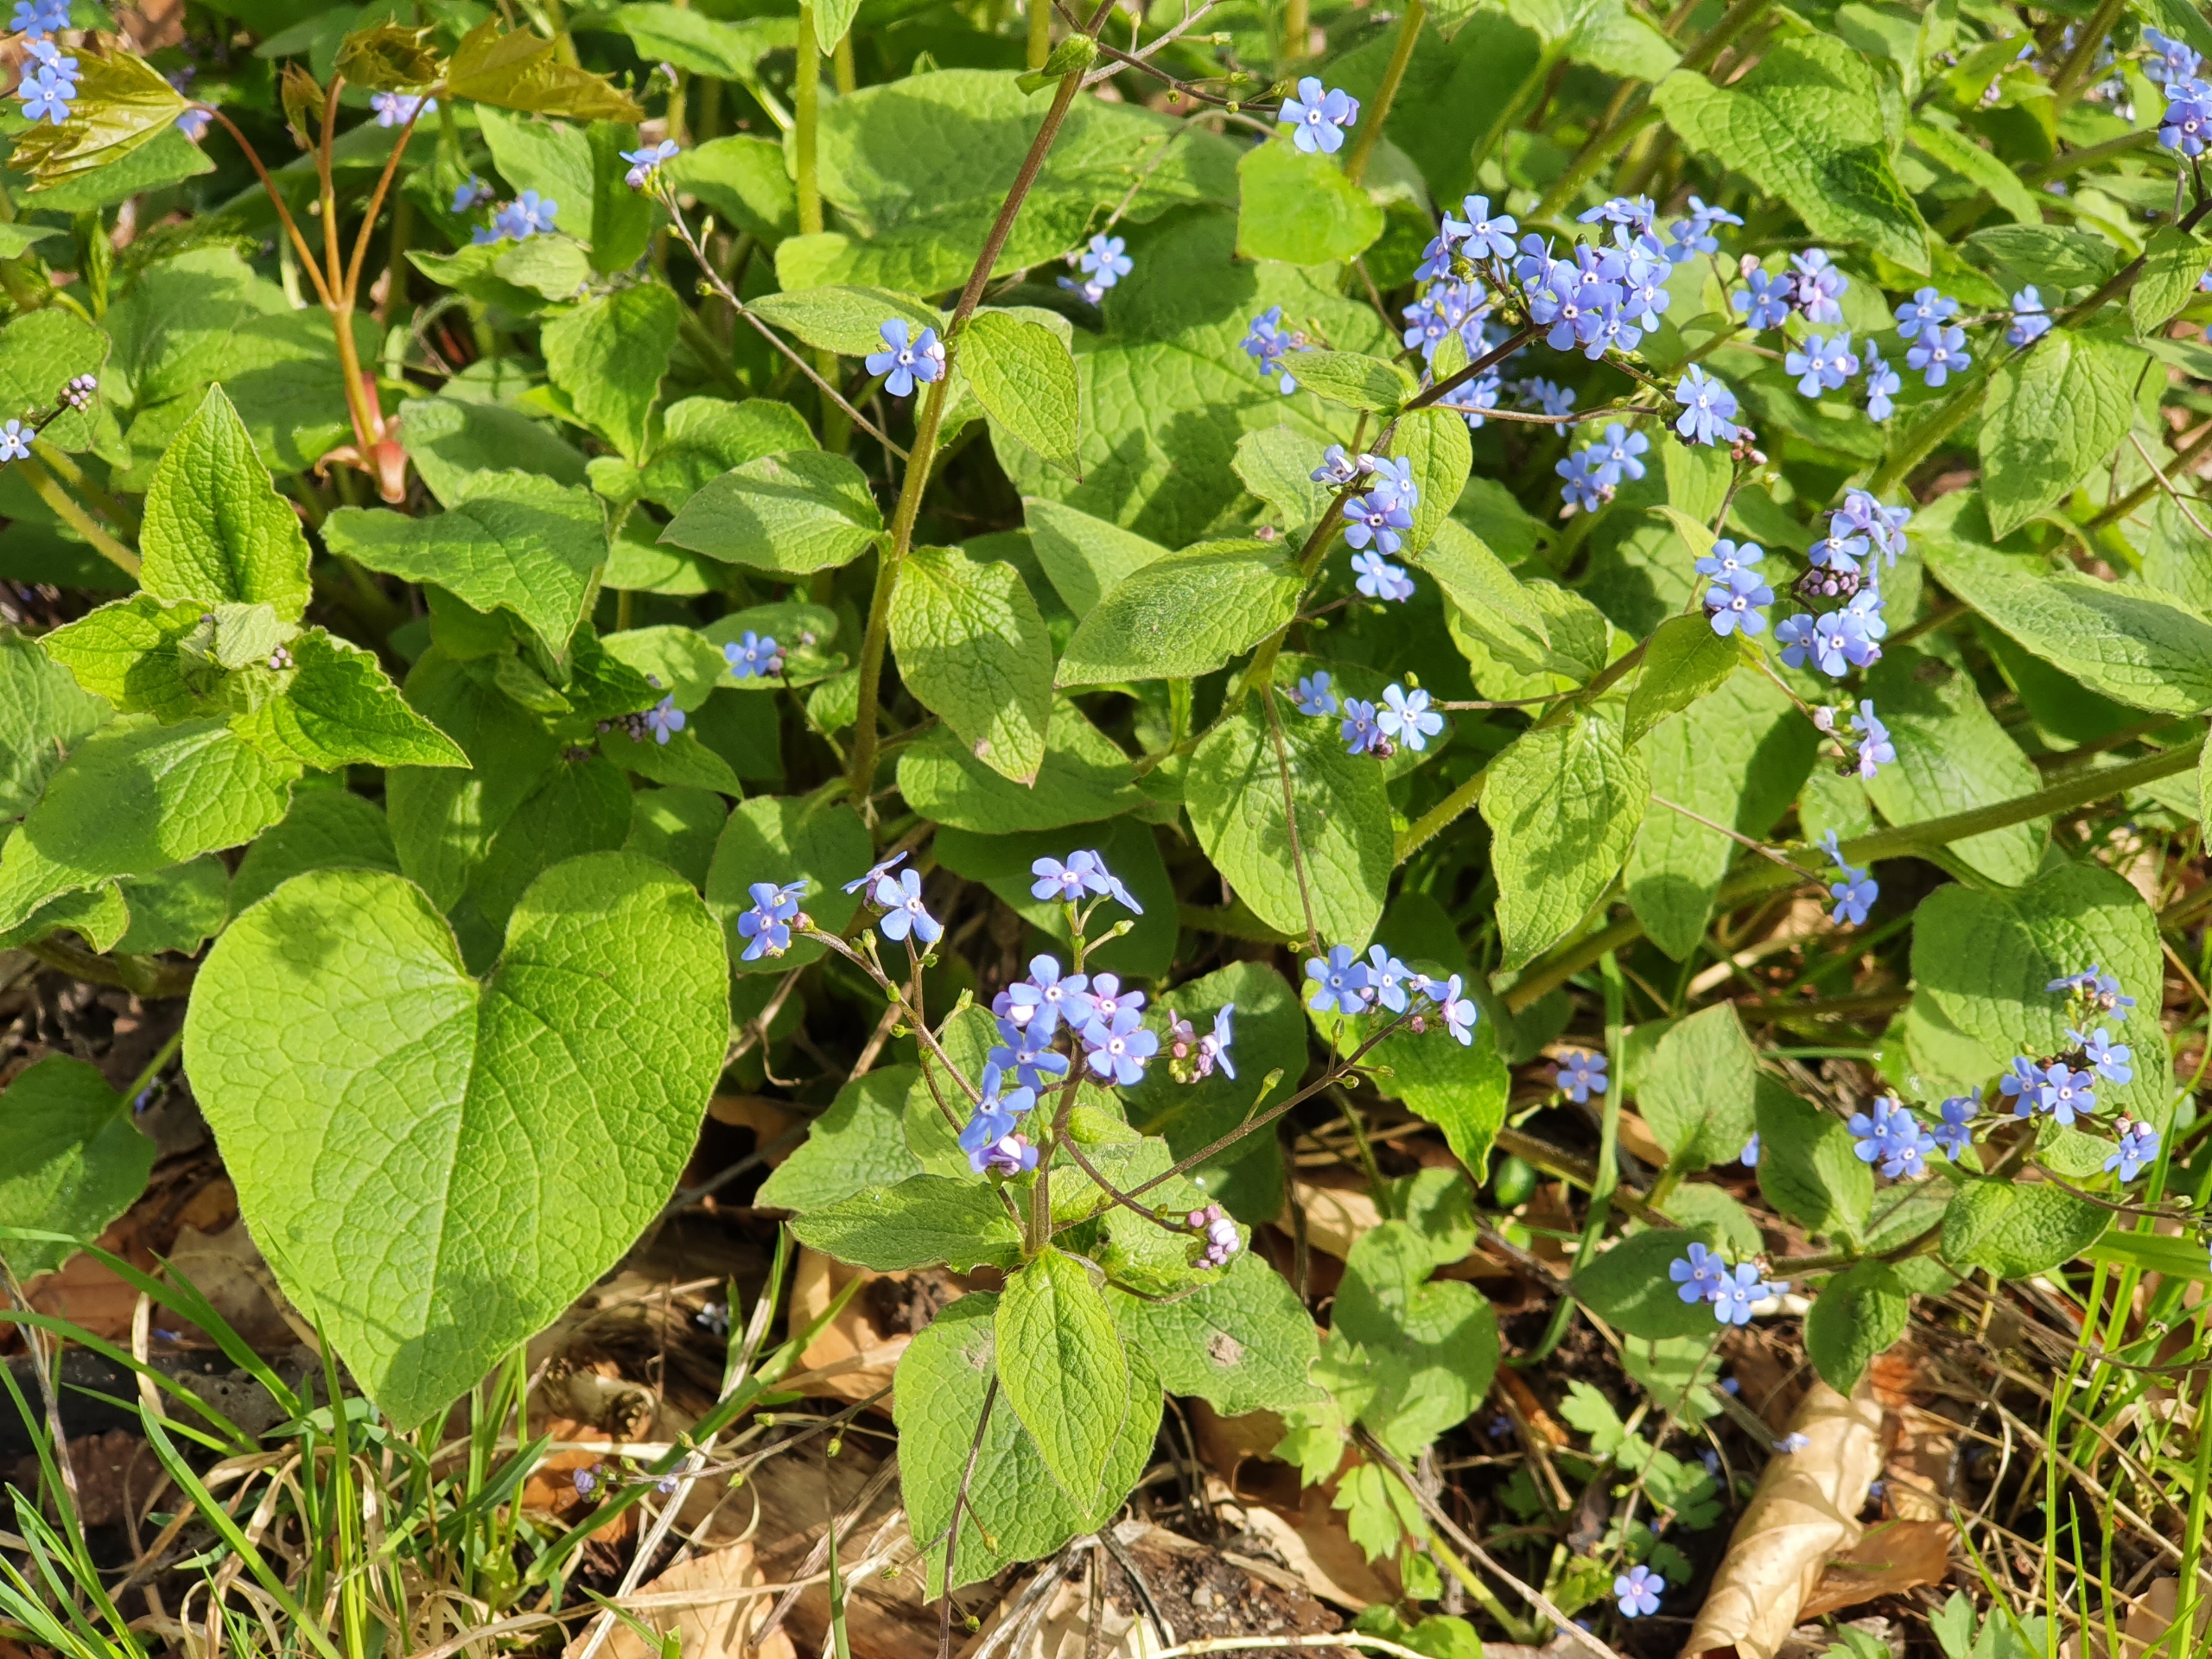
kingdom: Plantae
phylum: Tracheophyta
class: Magnoliopsida
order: Boraginales
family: Boraginaceae
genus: Brunnera
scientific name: Brunnera macrophylla
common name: Kærmindesøster
